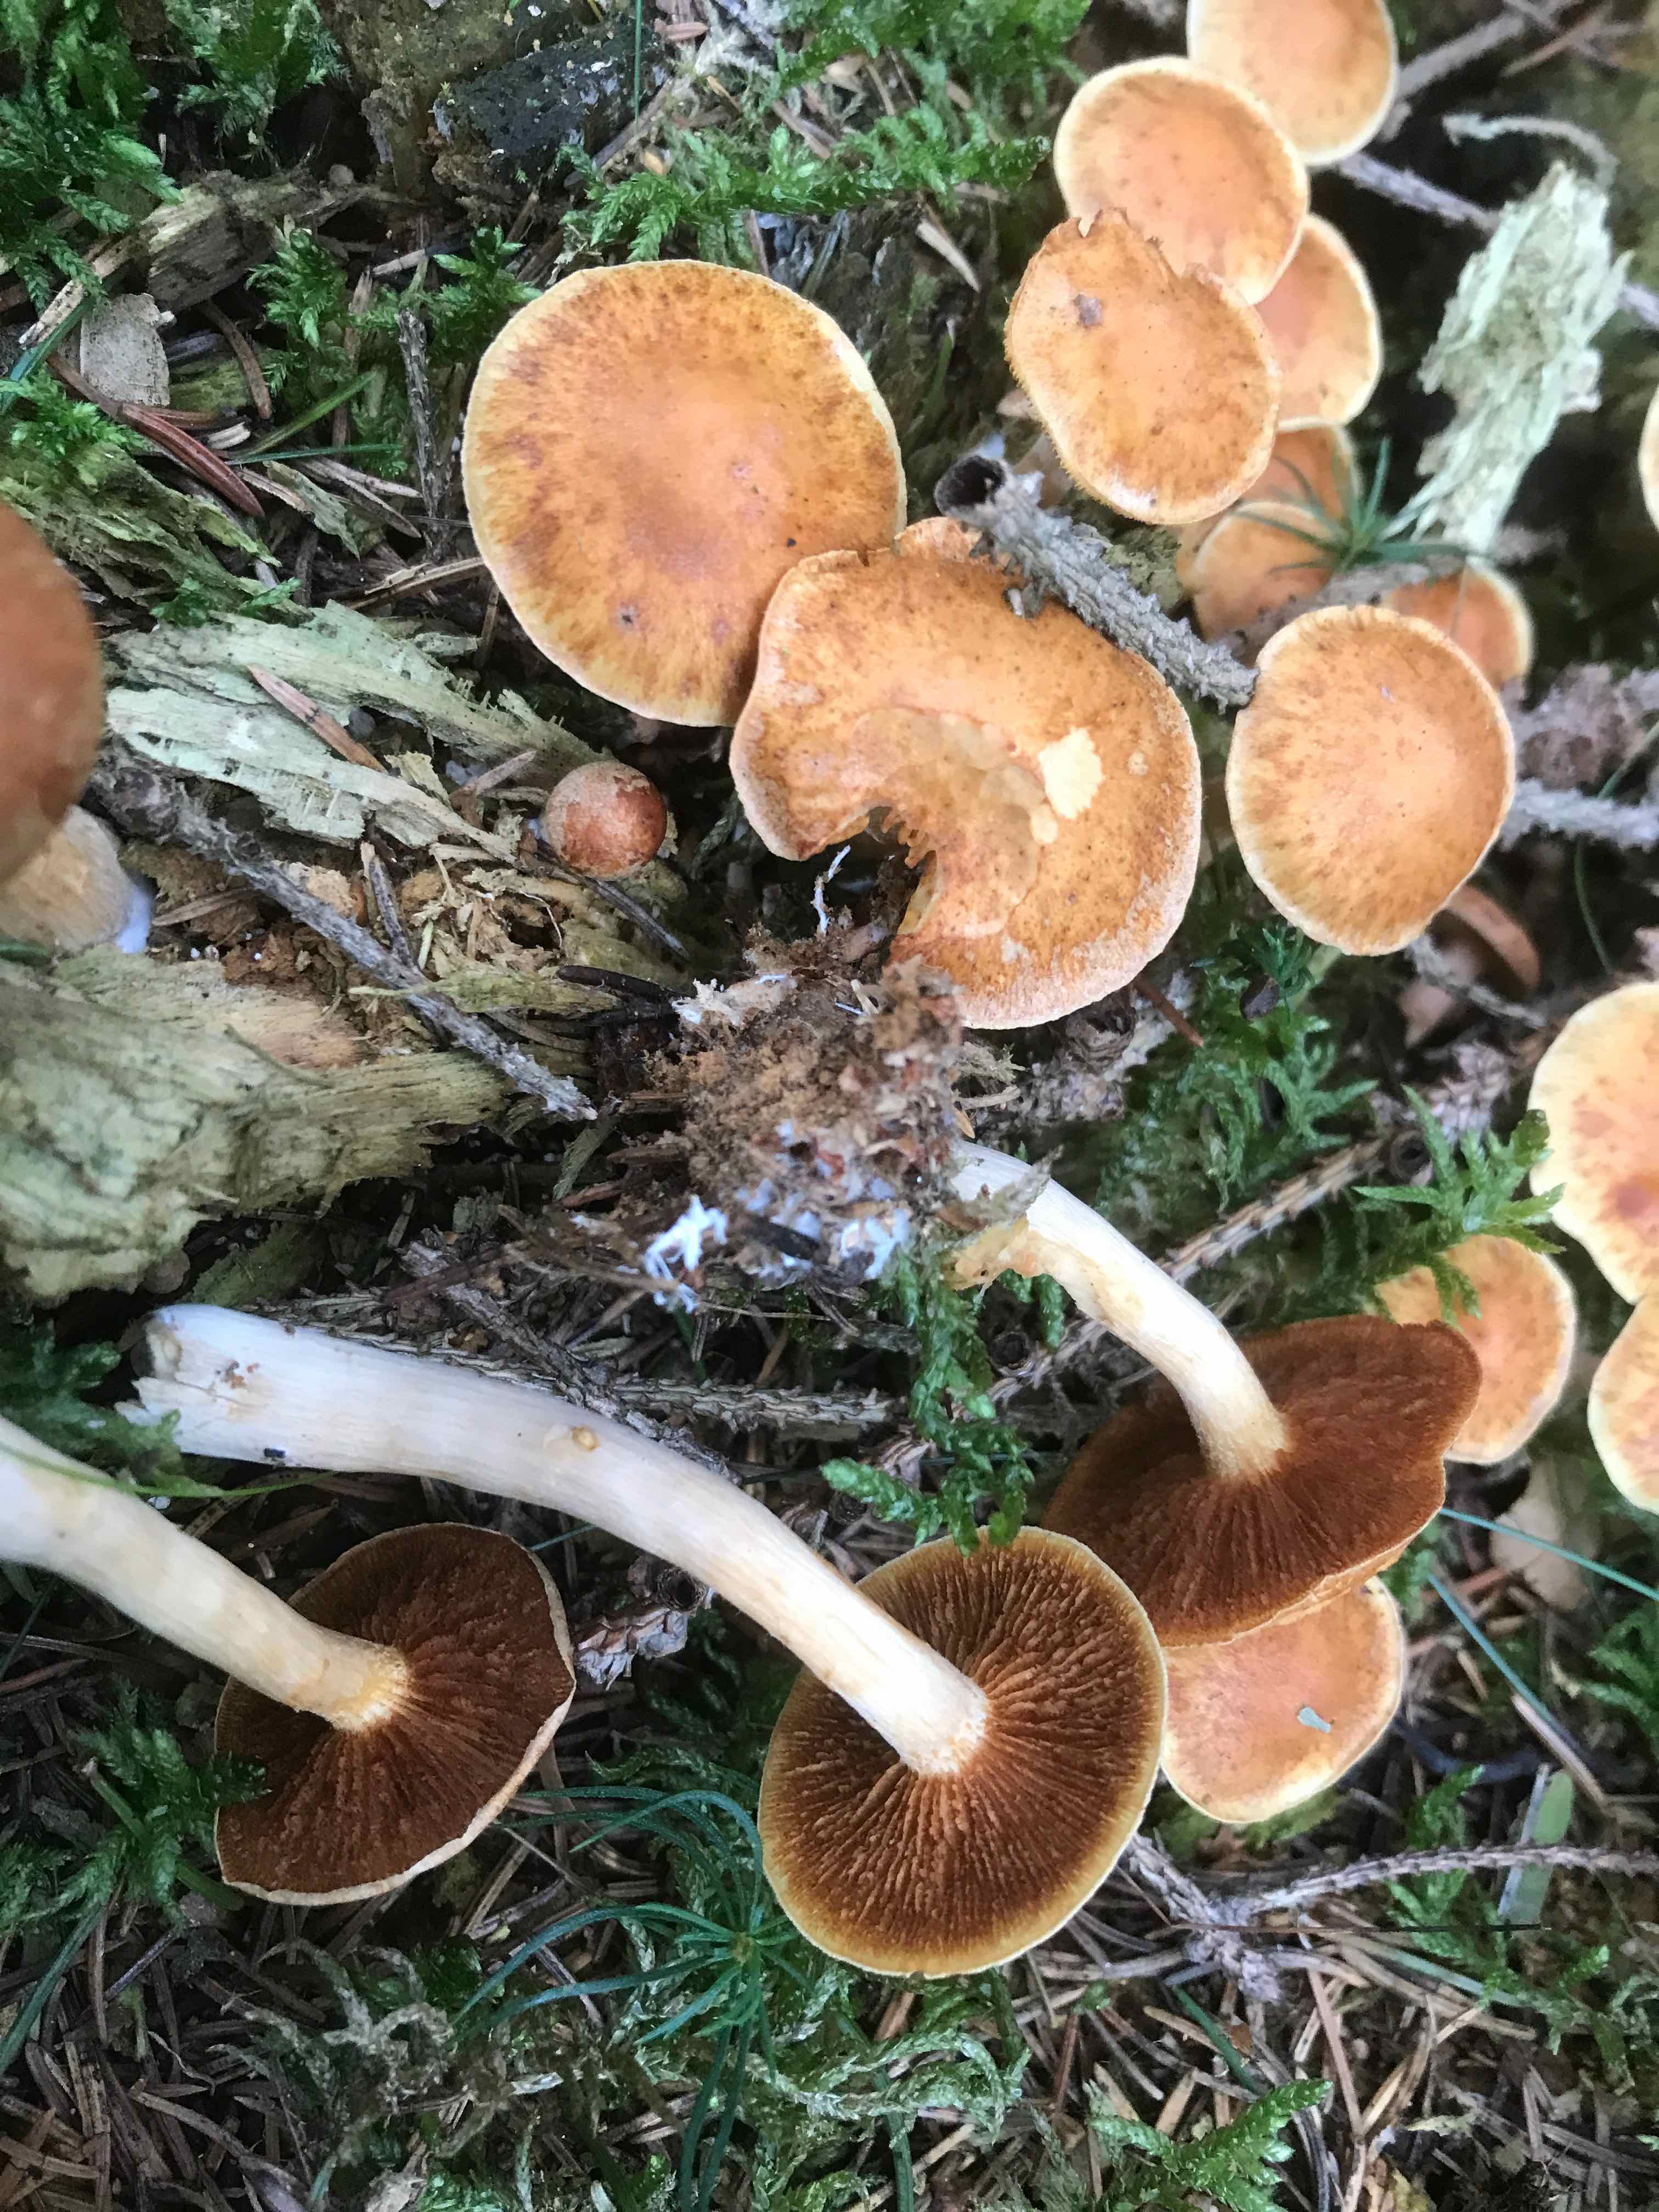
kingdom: Fungi
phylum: Basidiomycota
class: Agaricomycetes
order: Agaricales
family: Hymenogastraceae
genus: Gymnopilus
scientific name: Gymnopilus penetrans
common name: plettet flammehat
